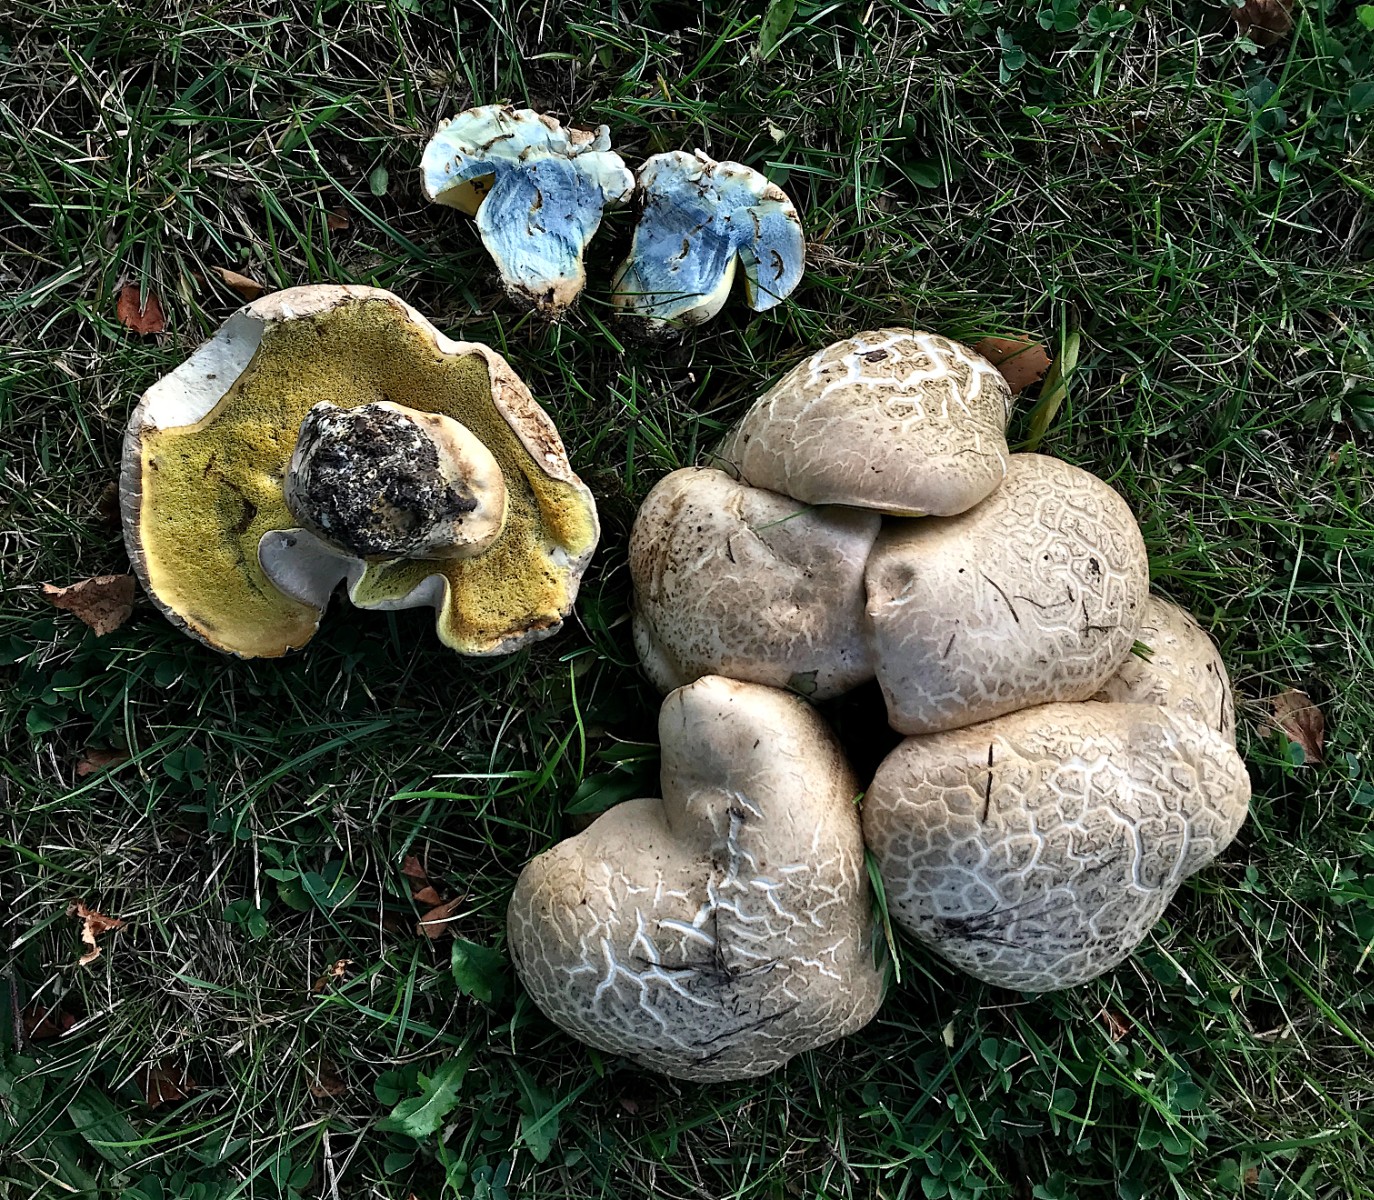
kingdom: Fungi
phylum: Basidiomycota
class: Agaricomycetes
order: Boletales
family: Boletaceae
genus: Caloboletus
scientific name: Caloboletus radicans
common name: rod-rørhat
